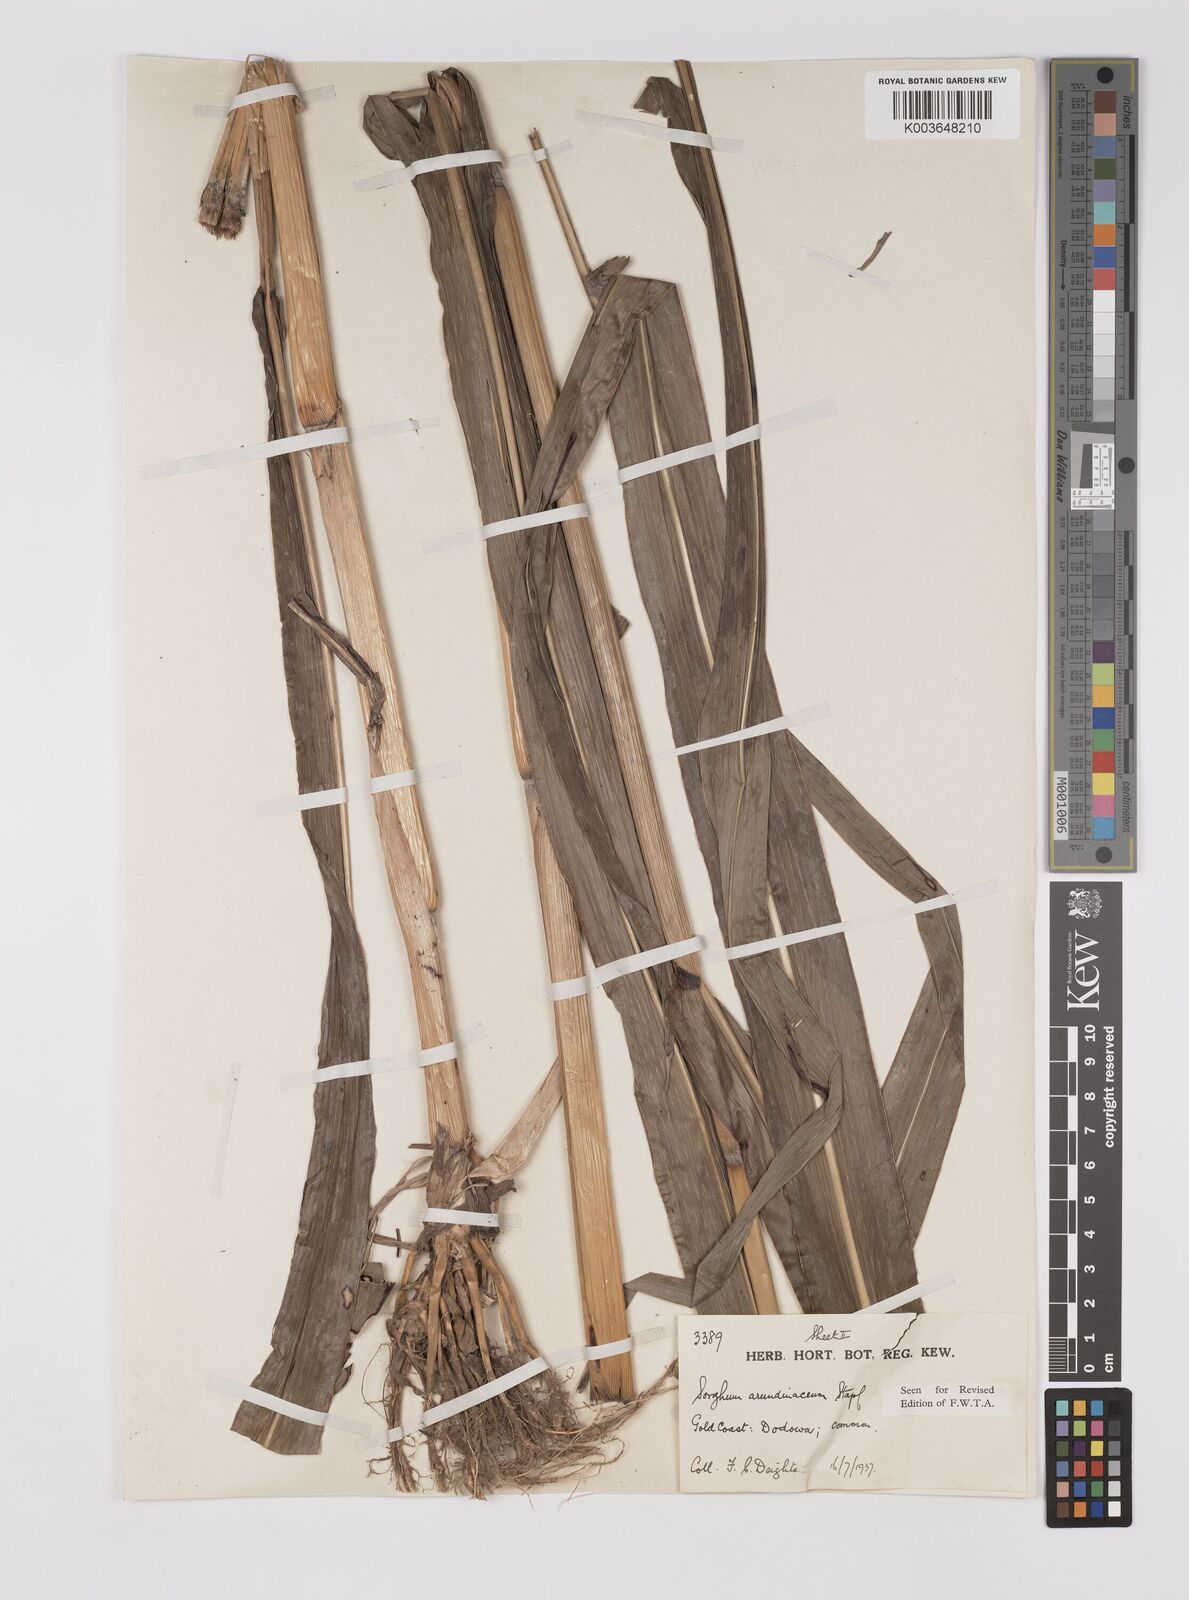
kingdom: Plantae
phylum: Tracheophyta
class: Liliopsida
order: Poales
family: Poaceae
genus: Sorghum
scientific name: Sorghum arundinaceum
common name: Sorghum
